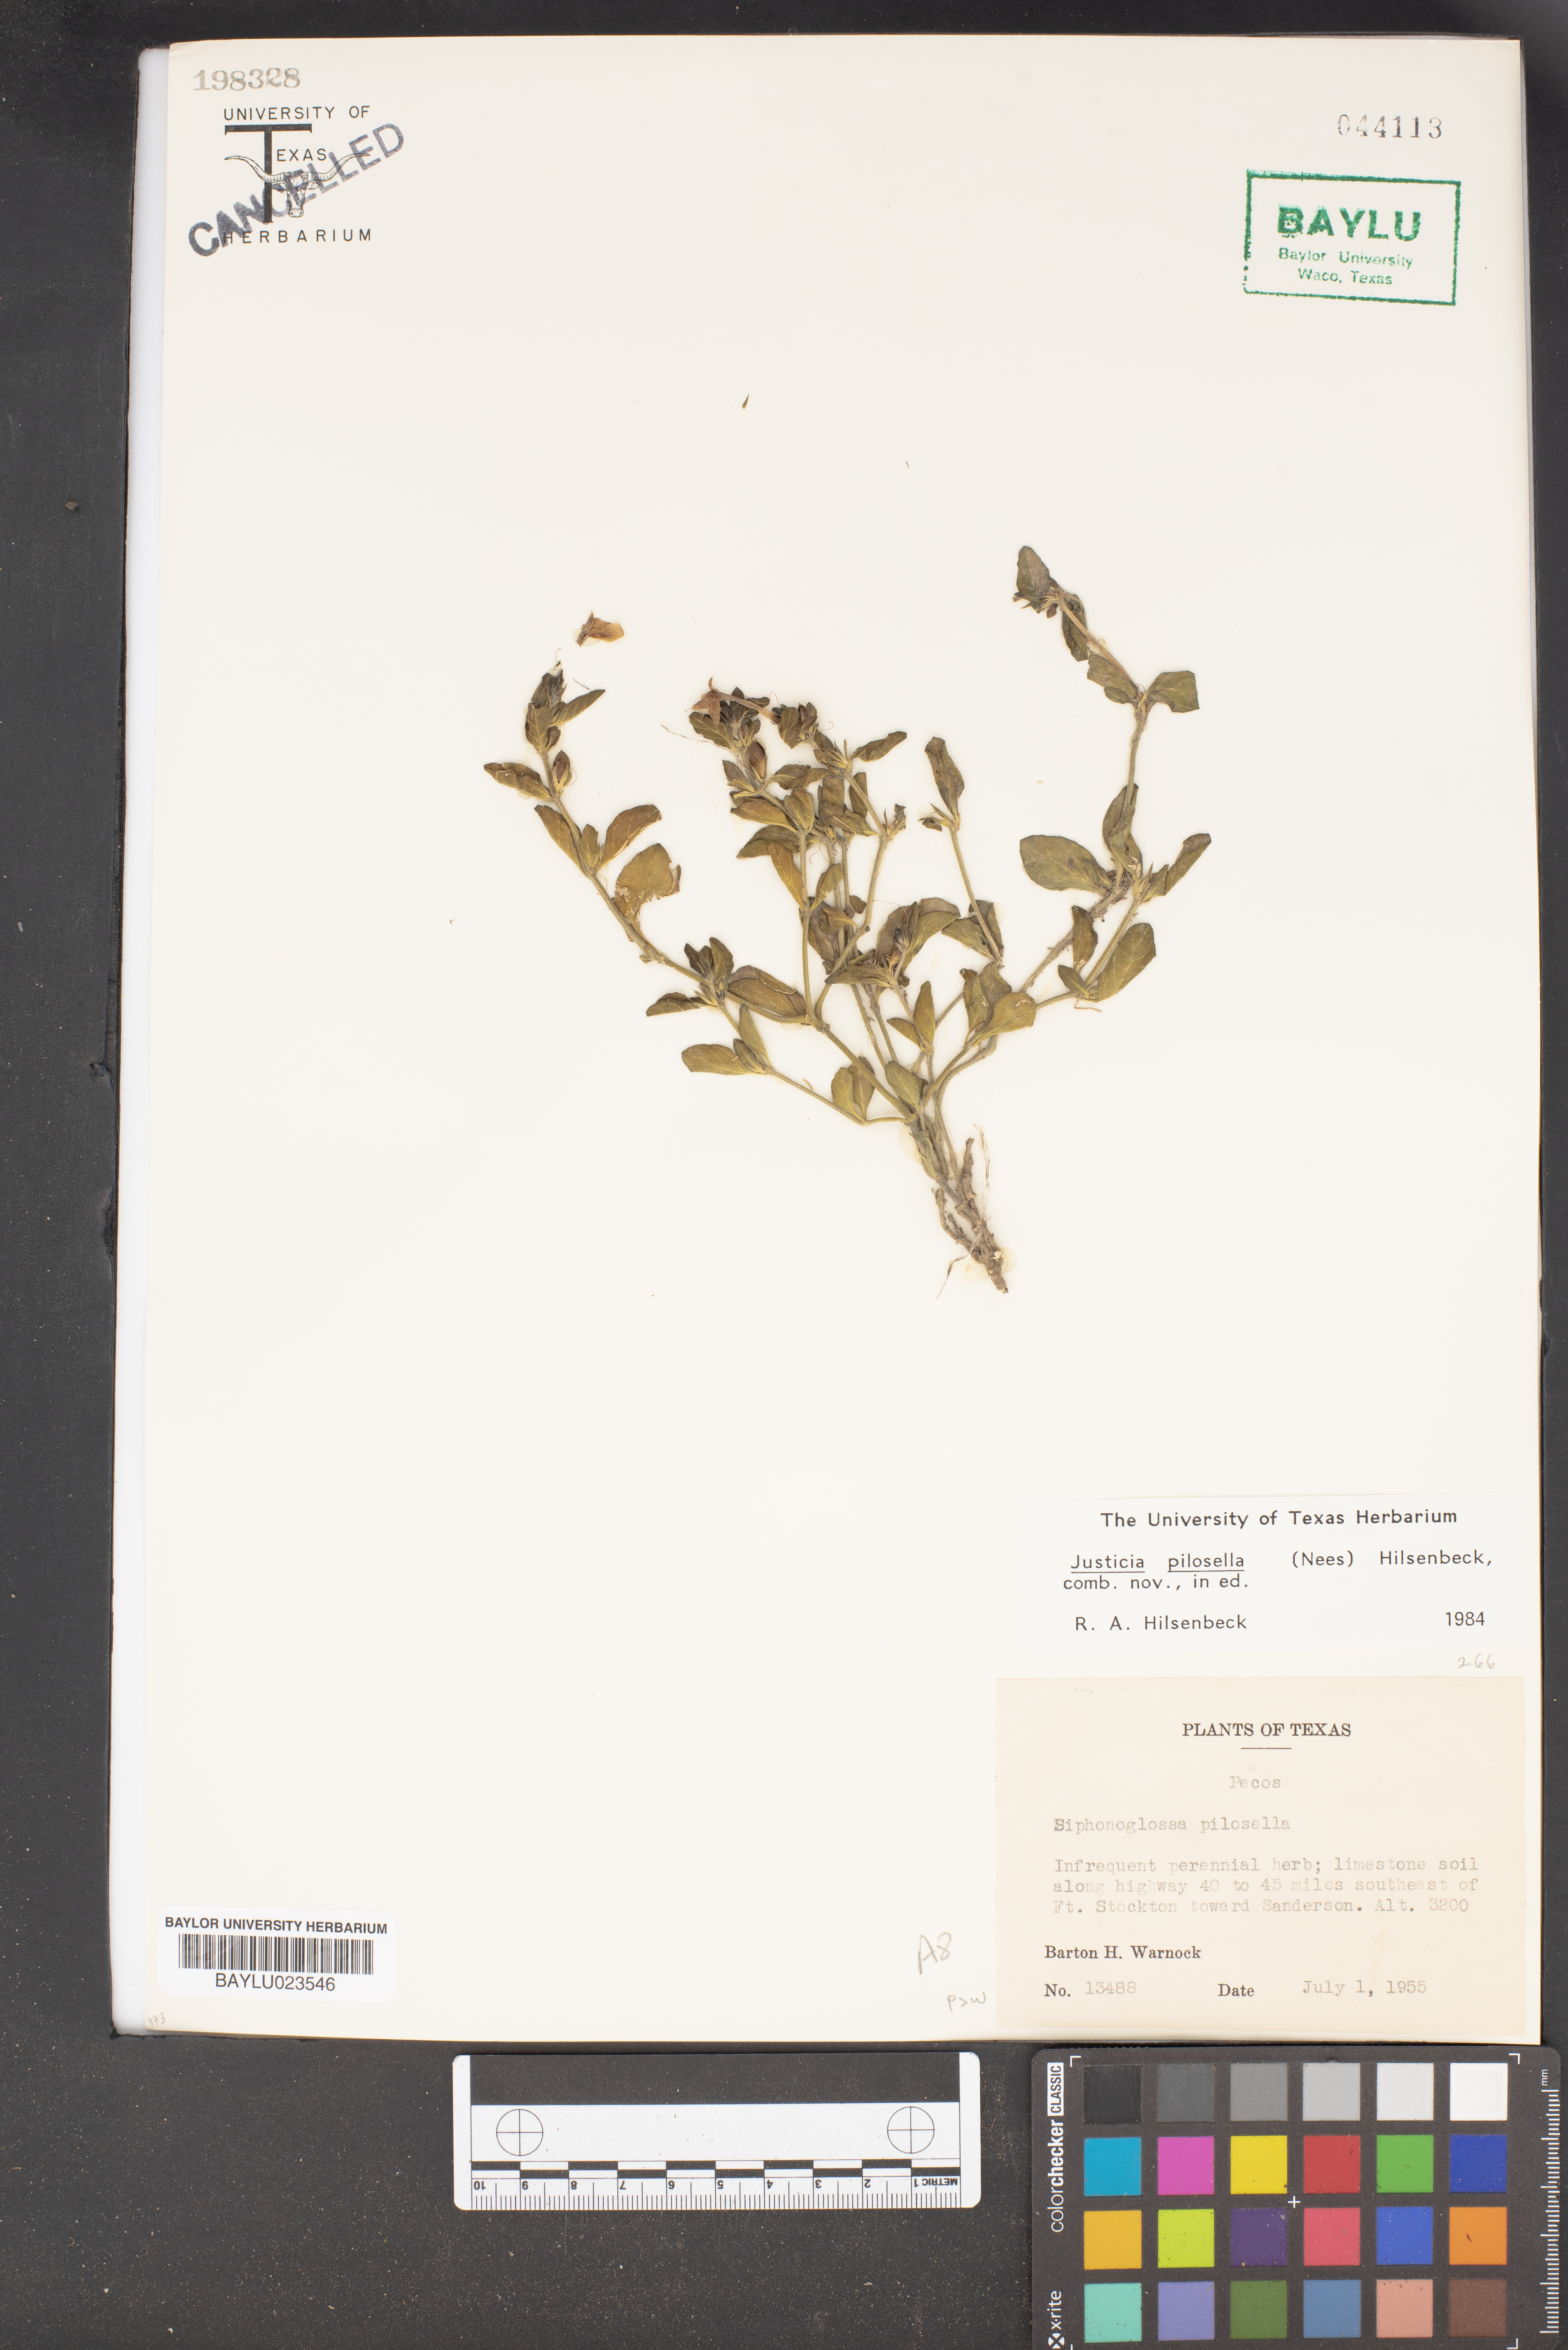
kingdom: Plantae
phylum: Tracheophyta
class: Magnoliopsida
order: Lamiales
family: Acanthaceae
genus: Justicia
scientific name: Justicia pilosella
